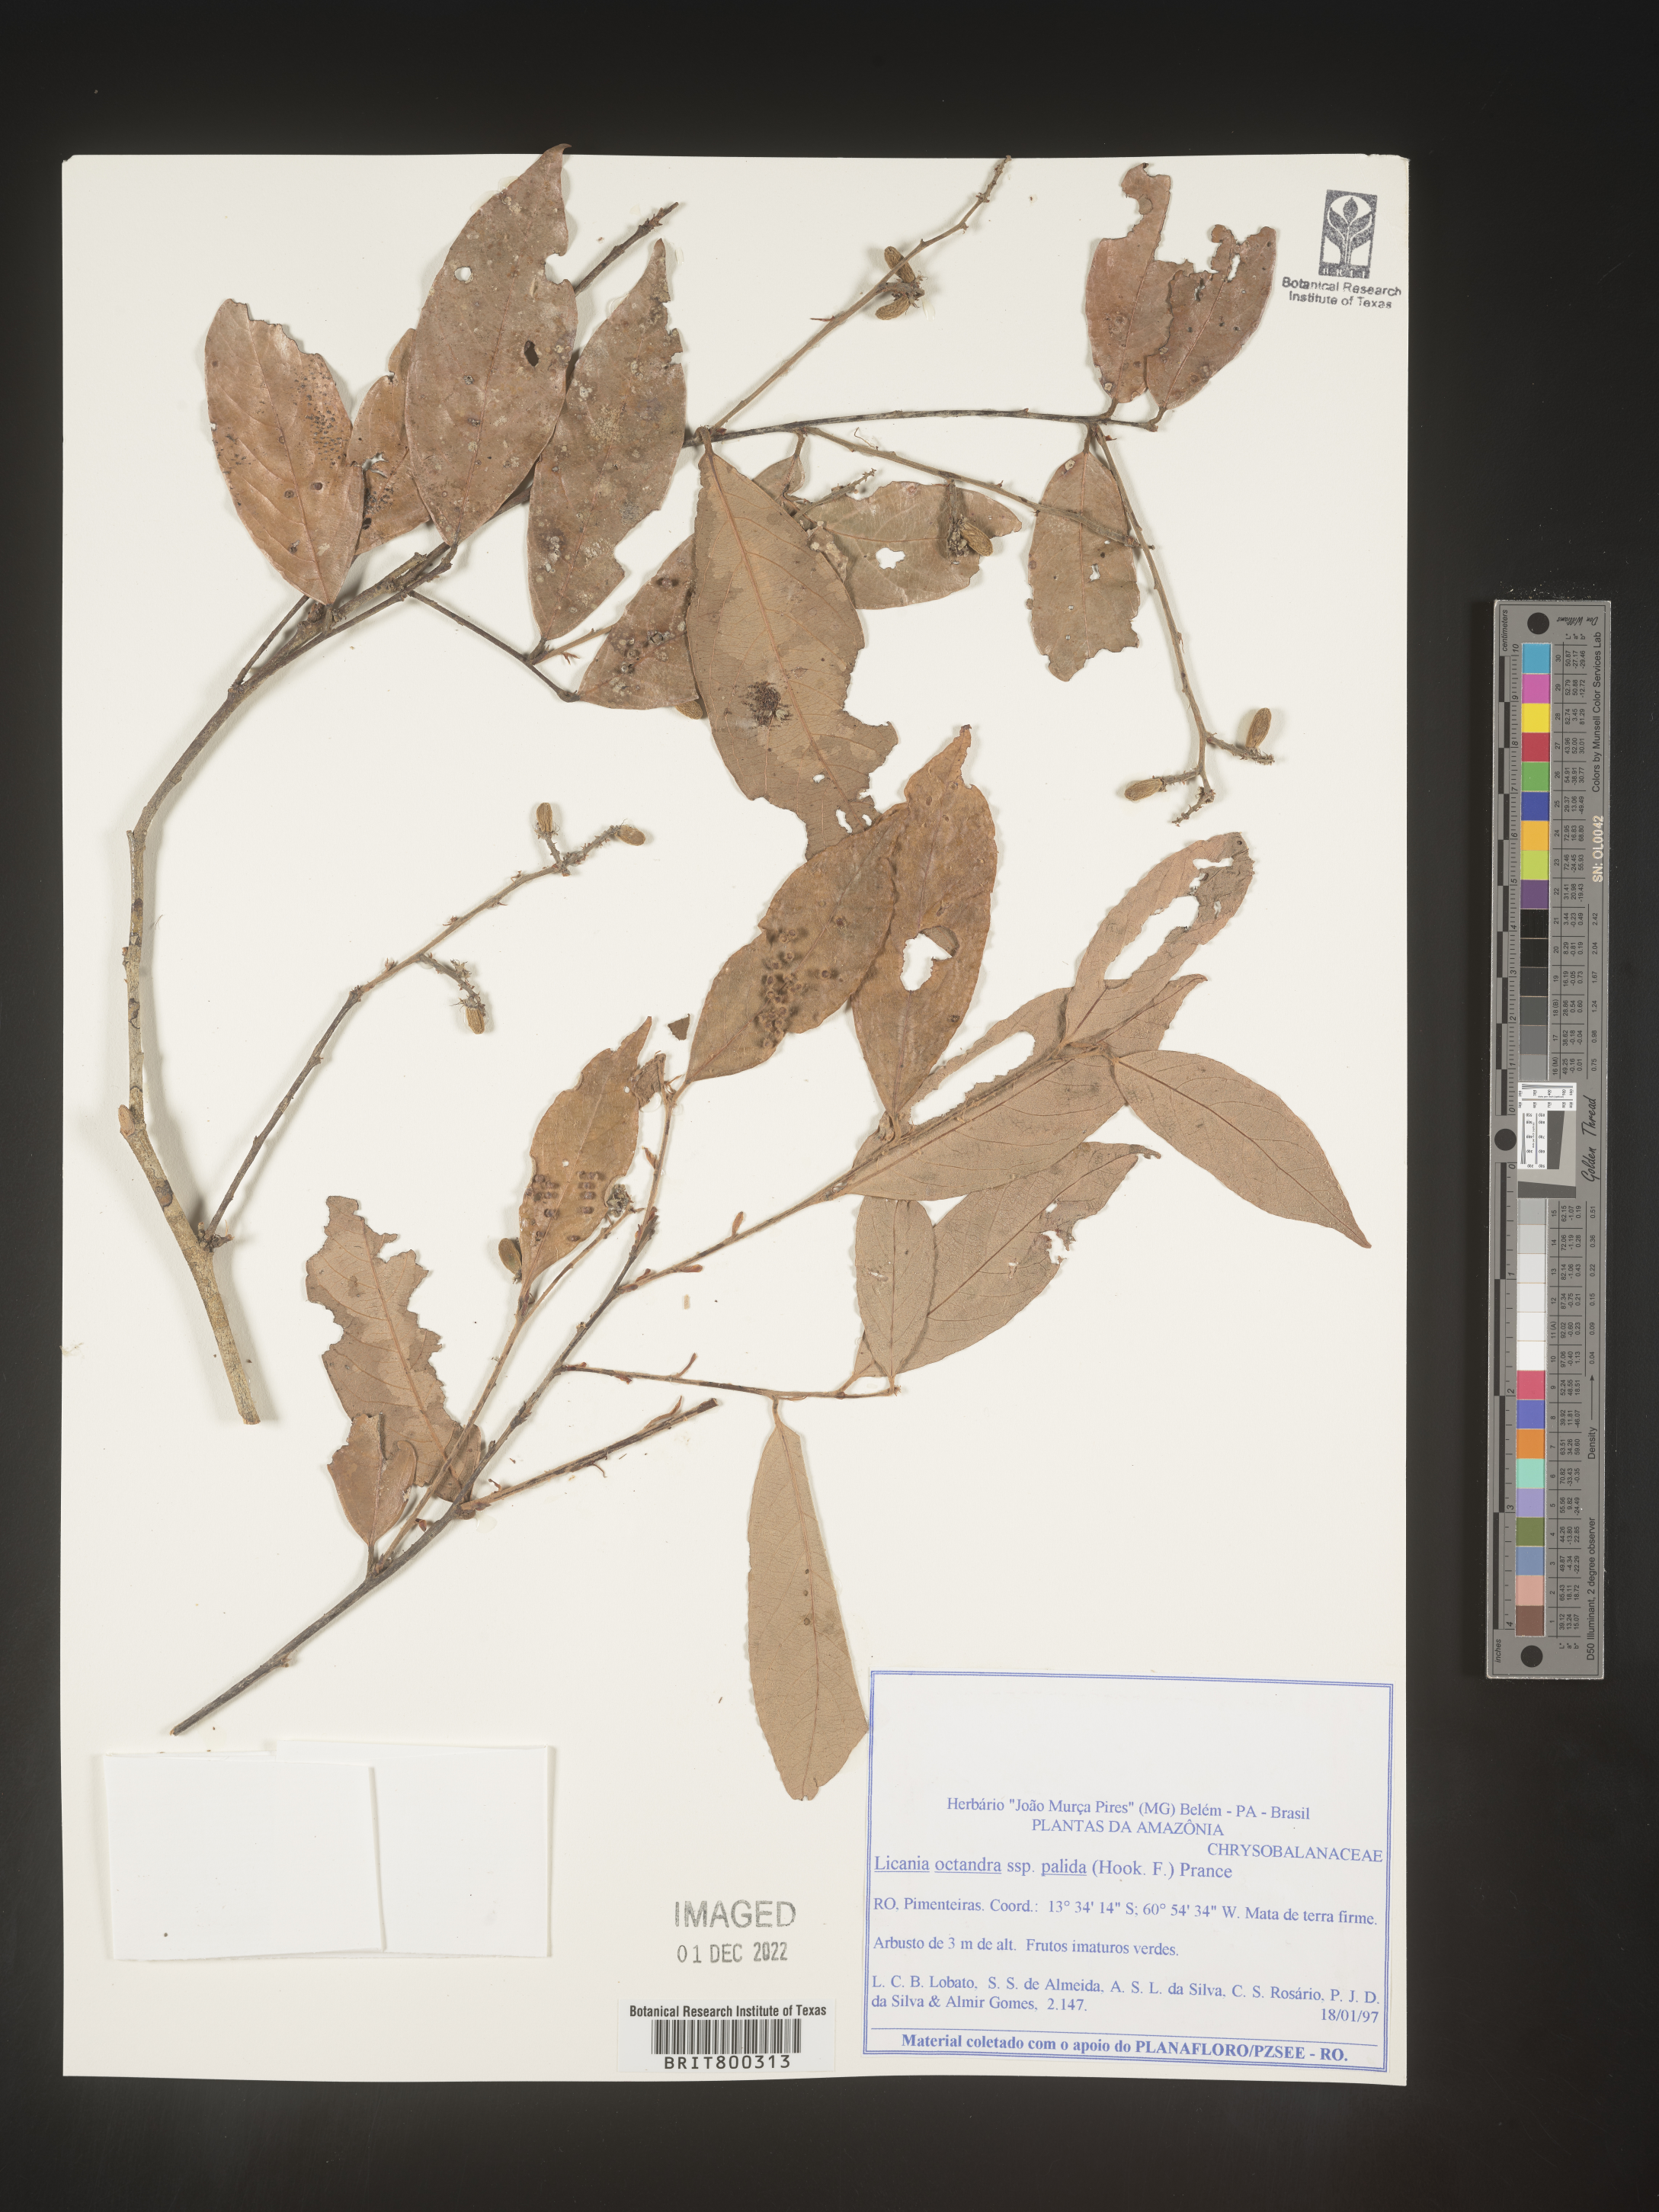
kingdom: Plantae
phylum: Tracheophyta
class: Magnoliopsida
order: Malpighiales
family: Chrysobalanaceae
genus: Licania
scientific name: Licania
